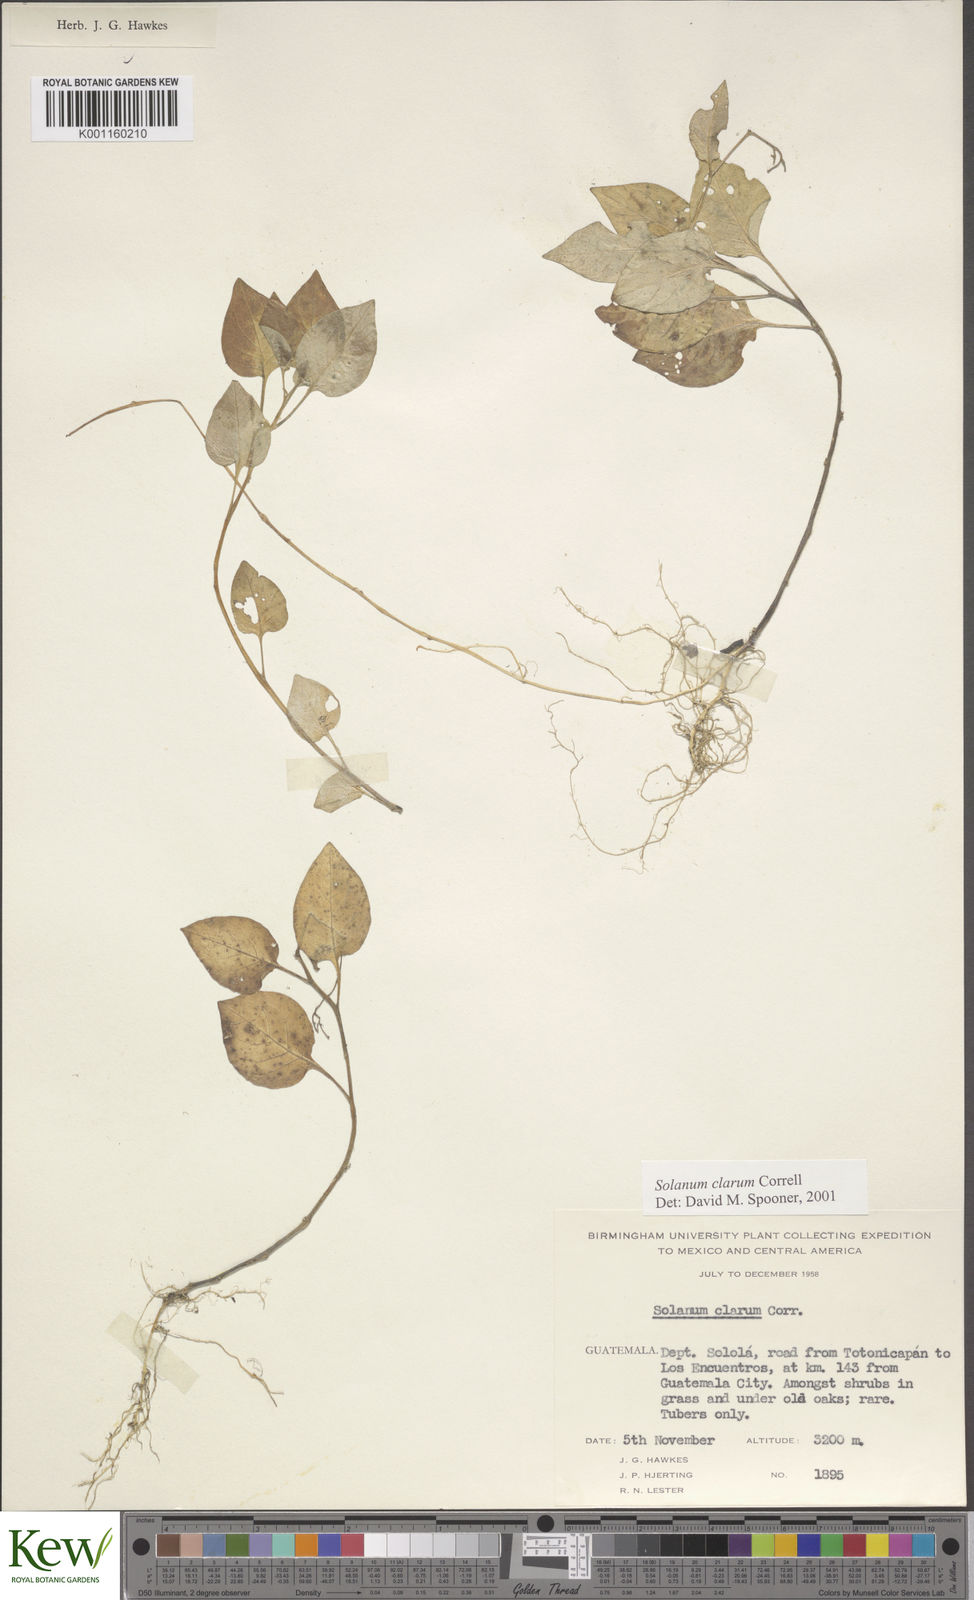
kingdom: Plantae
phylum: Tracheophyta
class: Magnoliopsida
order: Solanales
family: Solanaceae
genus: Solanum
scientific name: Solanum clarum
